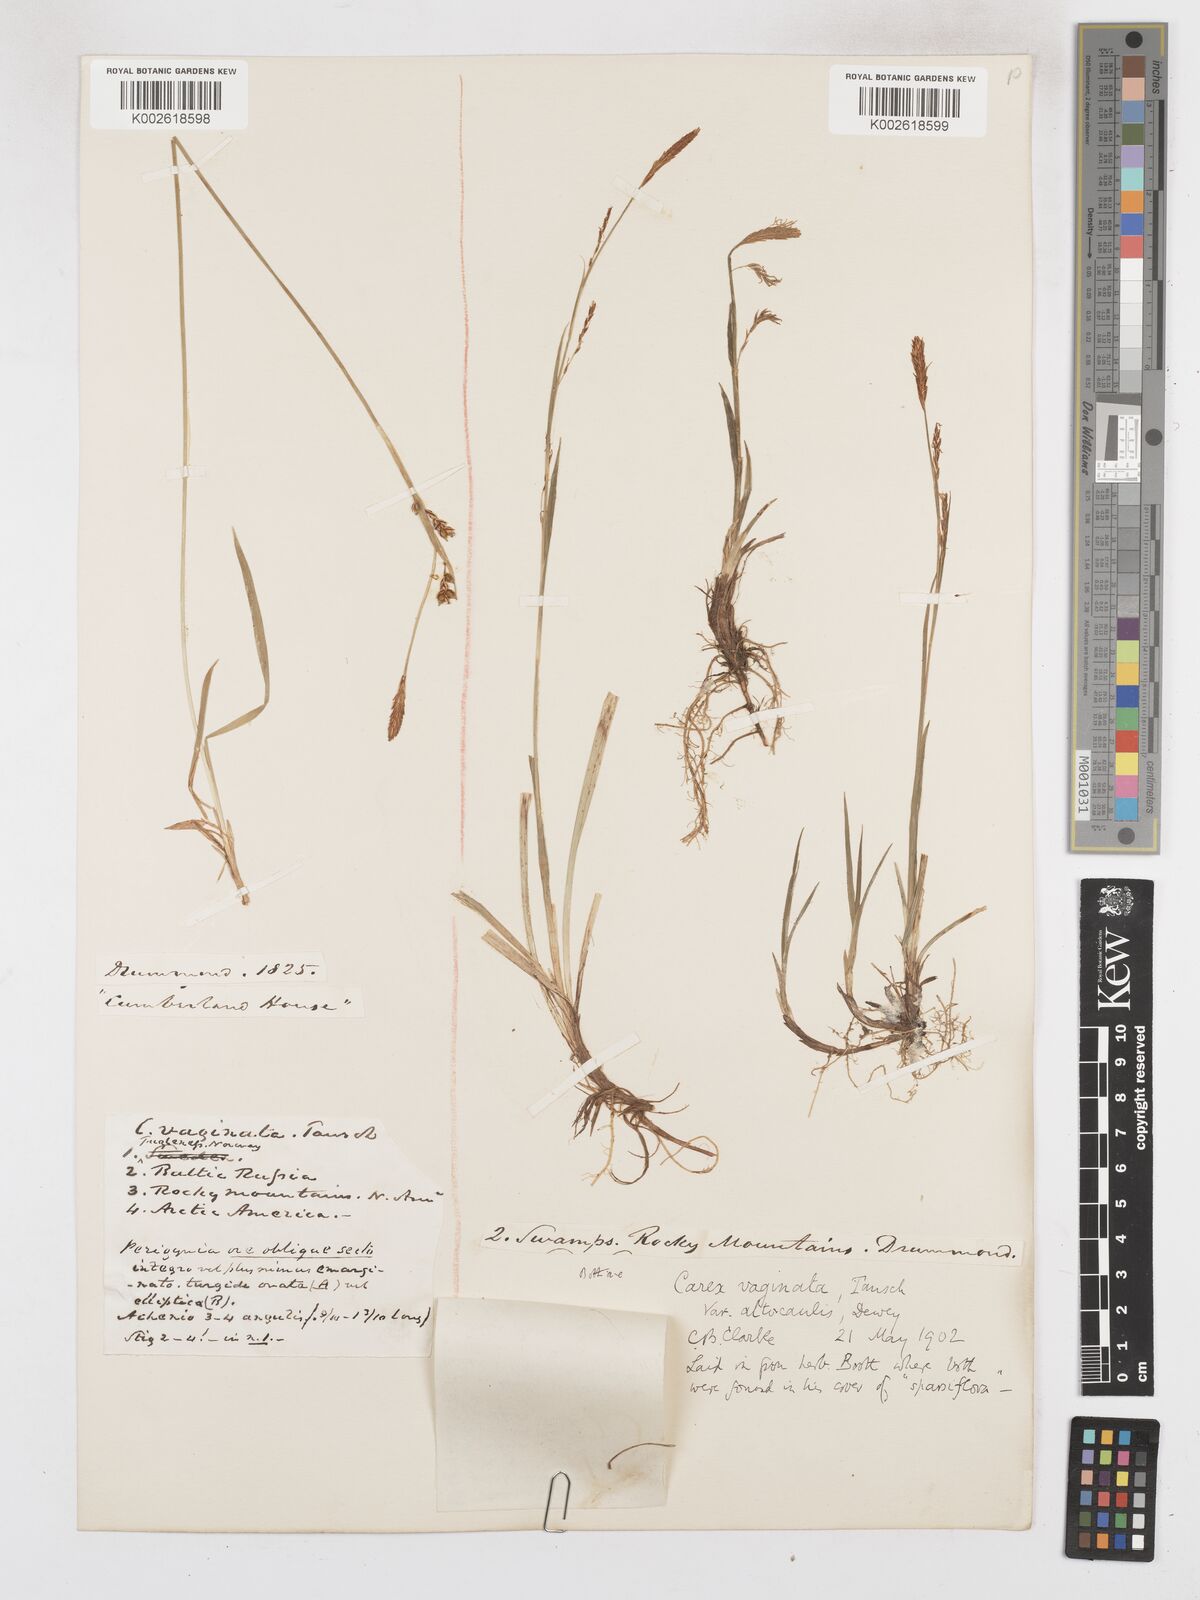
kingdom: Plantae
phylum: Tracheophyta
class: Liliopsida
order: Poales
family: Cyperaceae
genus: Carex
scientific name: Carex vaginata
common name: Sheathed sedge
